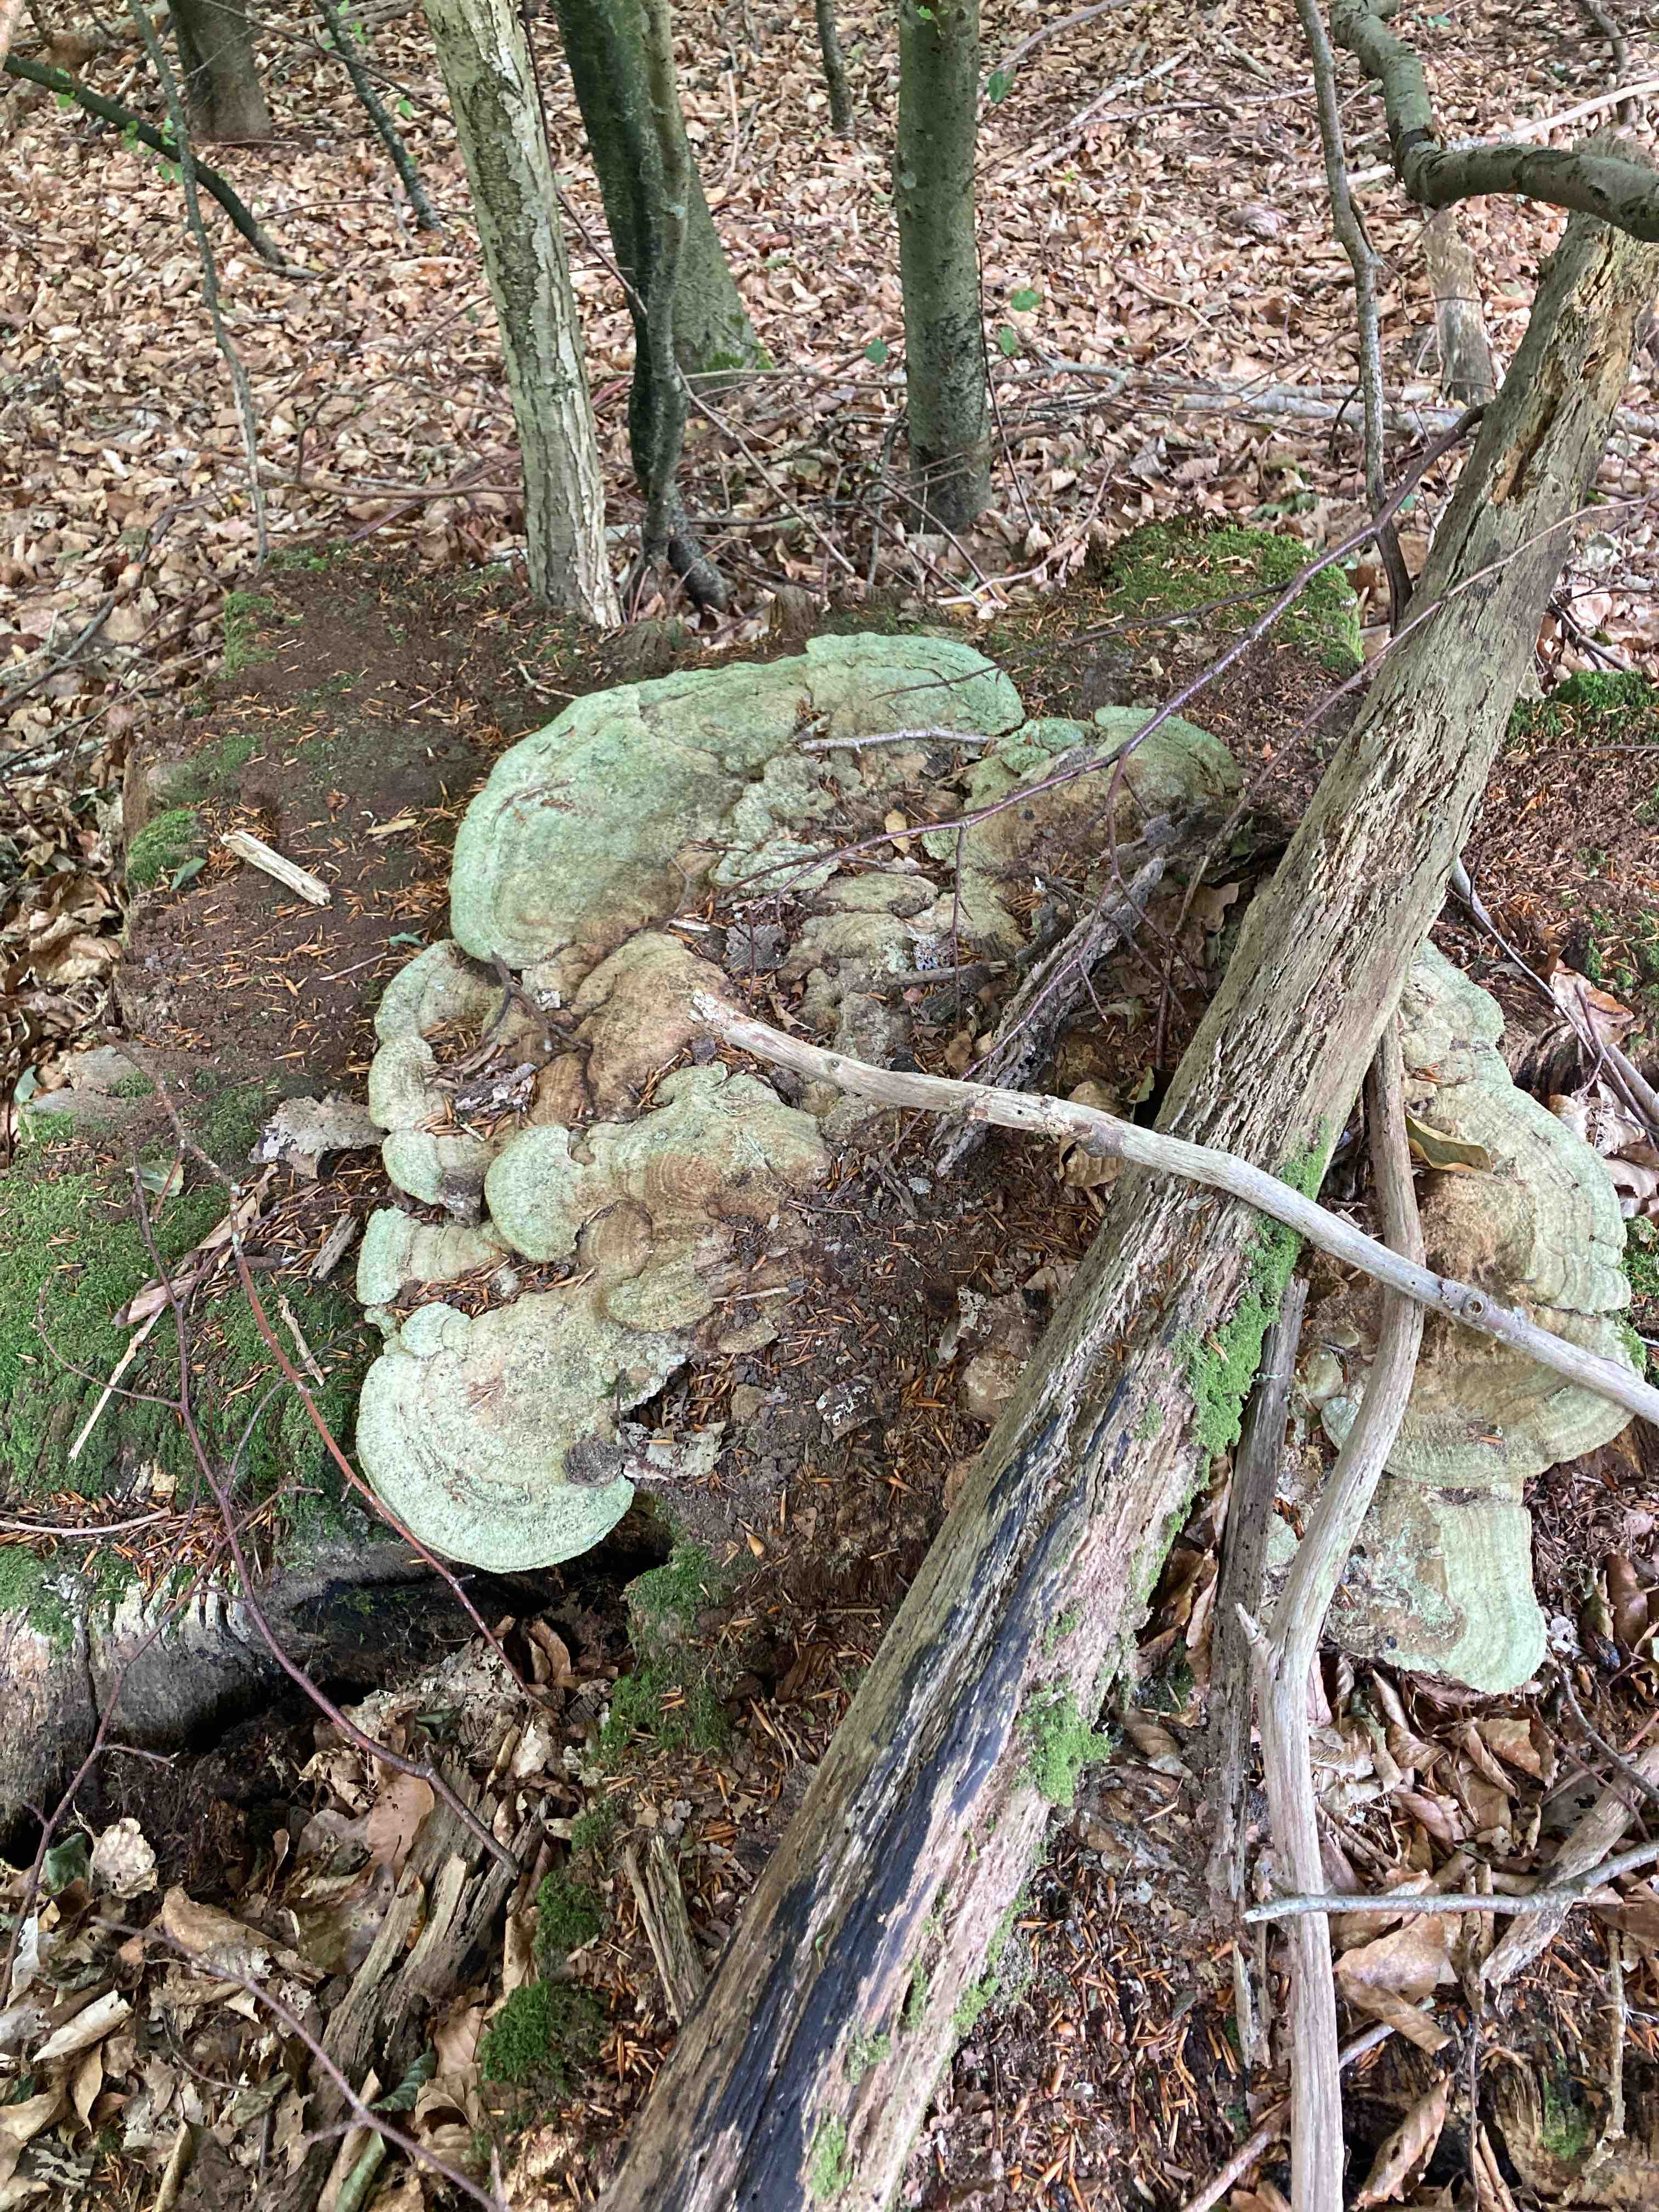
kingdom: Fungi
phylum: Basidiomycota
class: Agaricomycetes
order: Polyporales
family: Fomitopsidaceae
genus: Daedalea
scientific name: Daedalea quercina
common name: ege-labyrintsvamp
